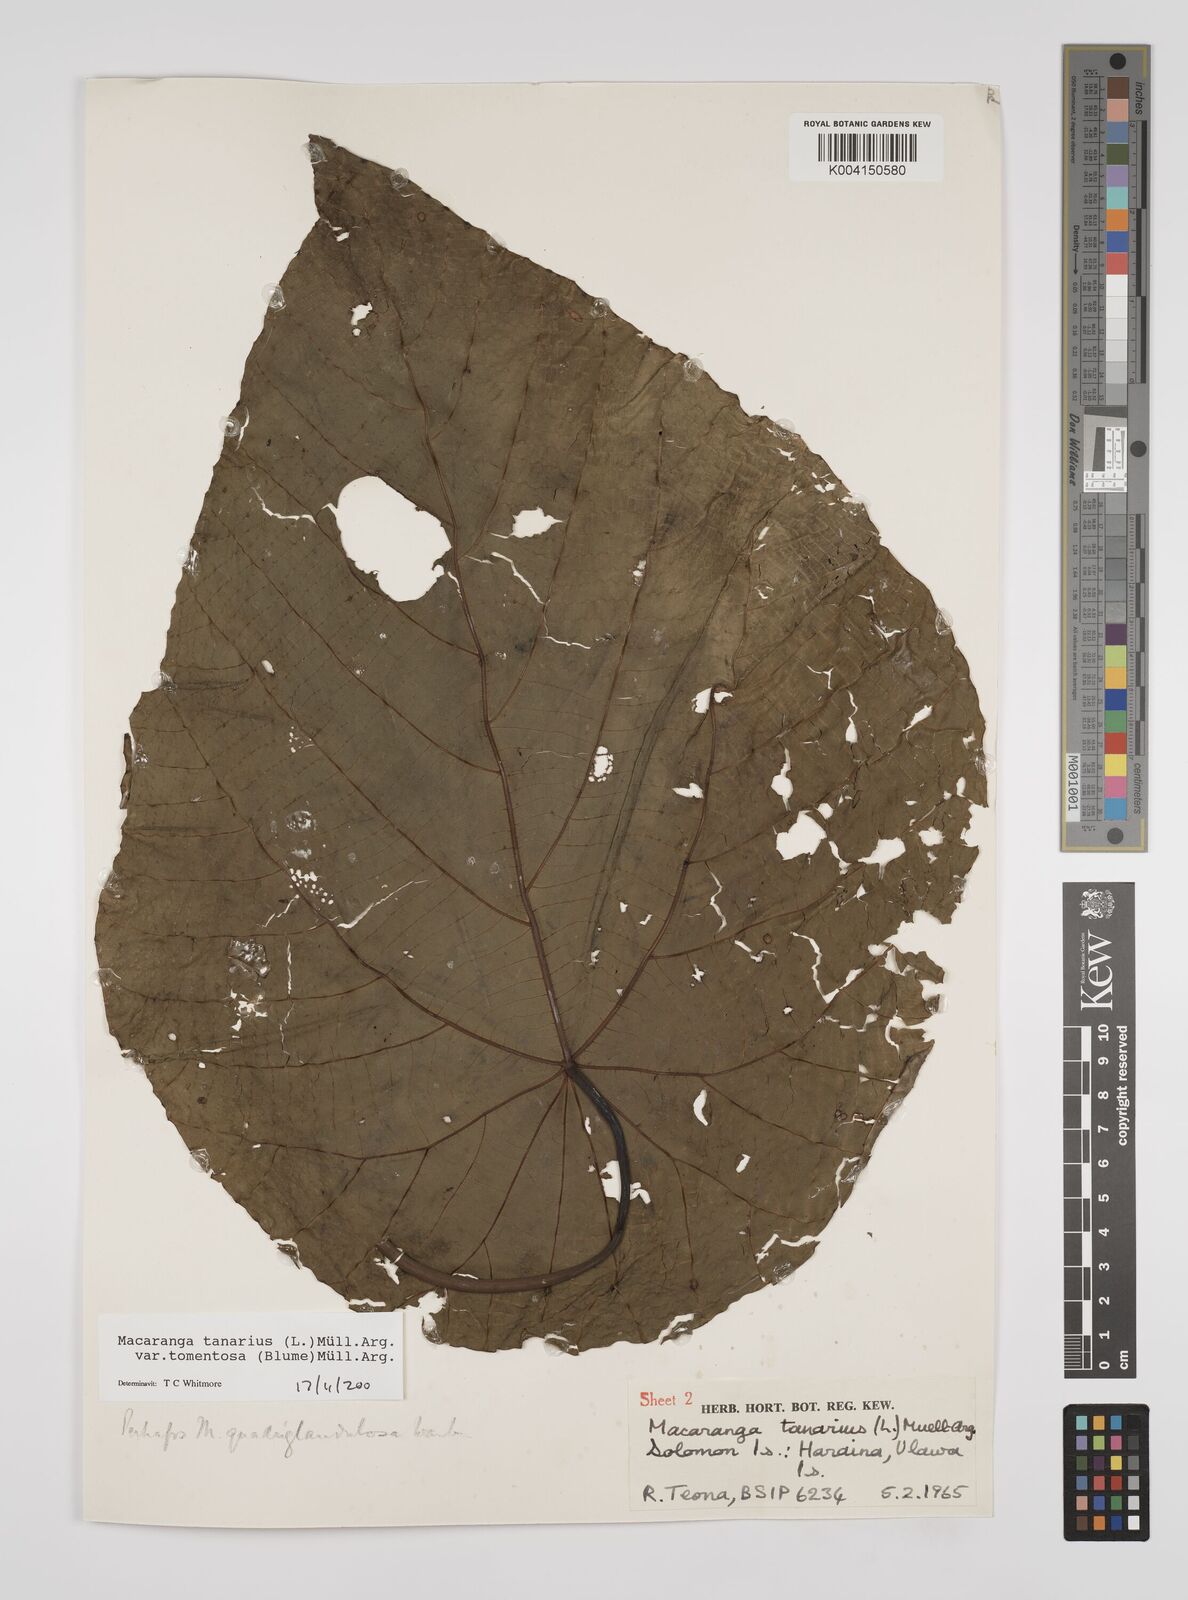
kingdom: Plantae
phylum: Tracheophyta
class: Magnoliopsida
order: Malpighiales
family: Euphorbiaceae
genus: Macaranga
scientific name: Macaranga tanarius
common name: Parasol leaf tree
